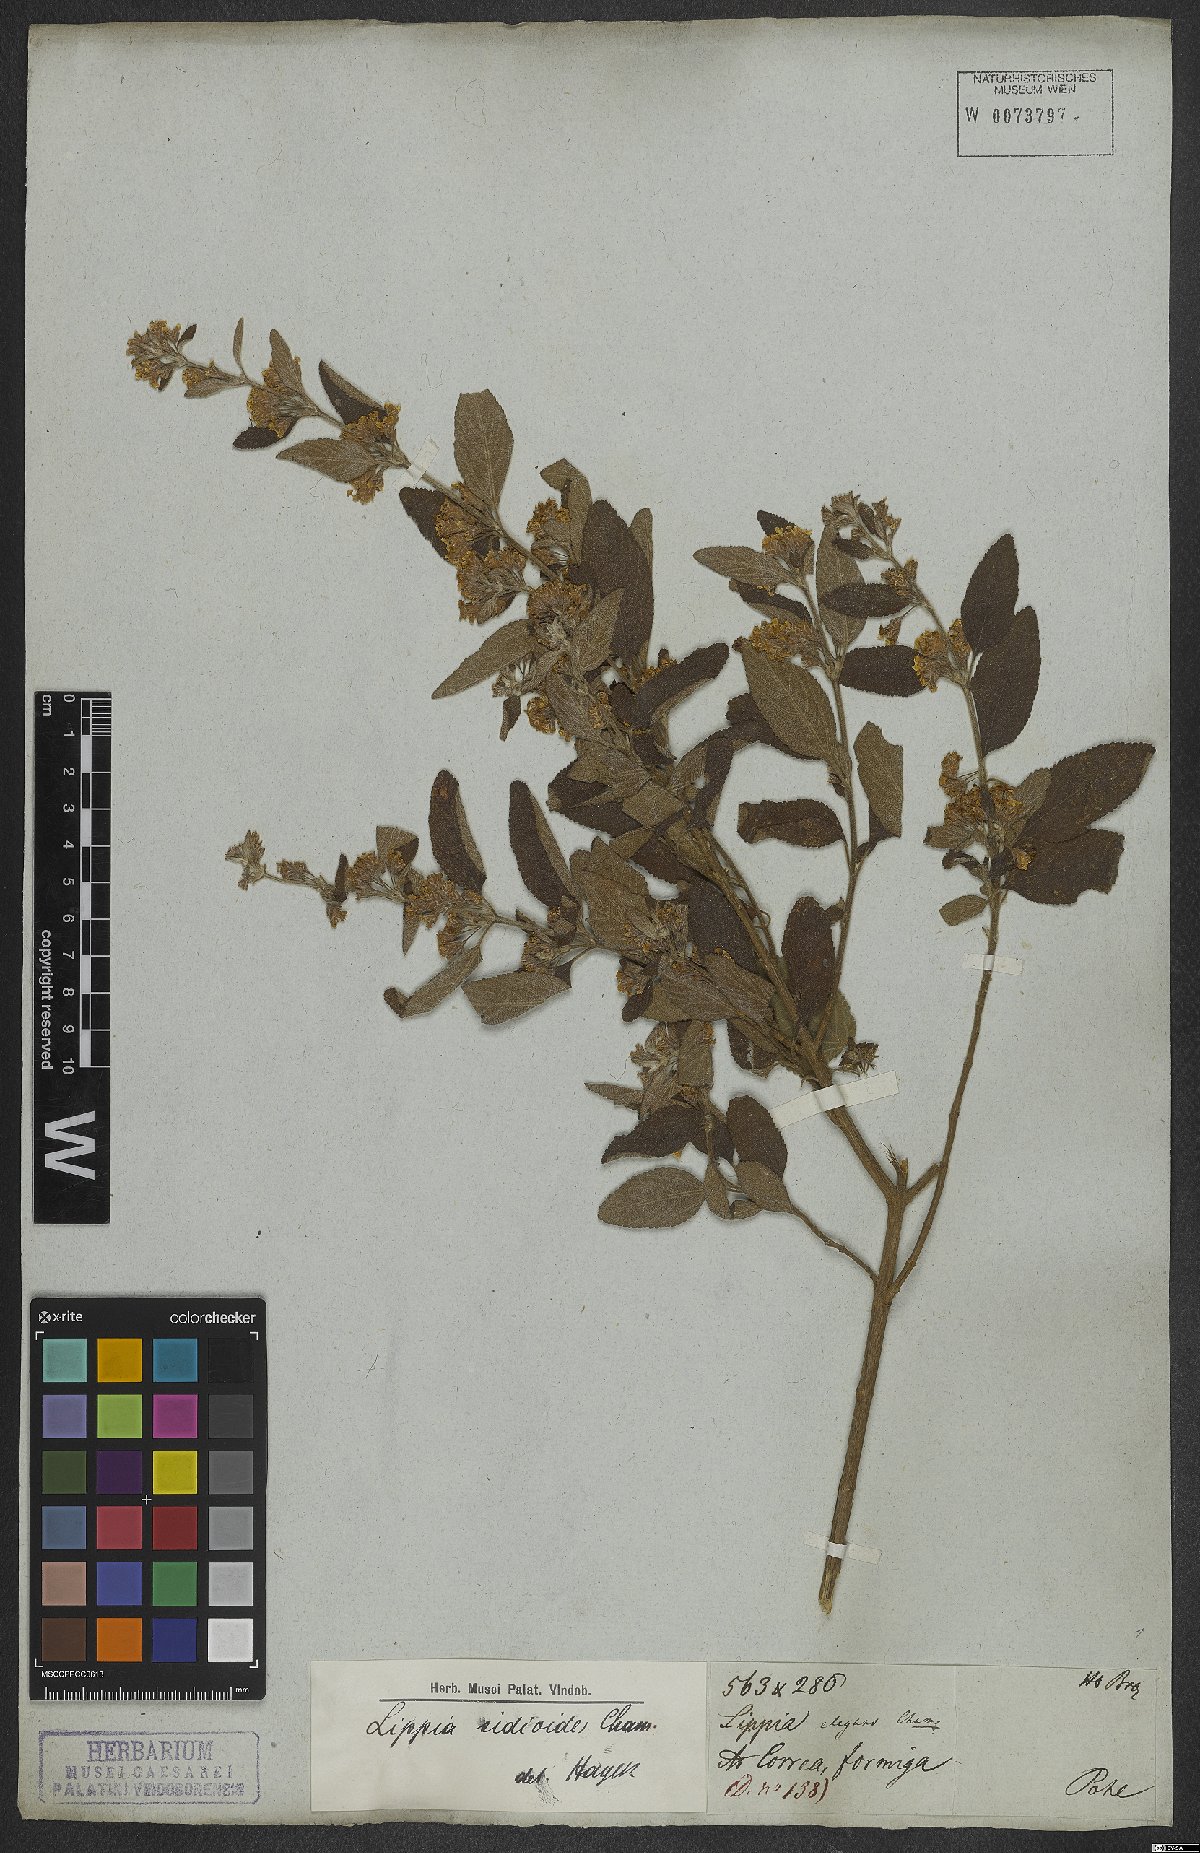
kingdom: Plantae
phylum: Tracheophyta
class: Magnoliopsida
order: Lamiales
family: Verbenaceae
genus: Lippia
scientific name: Lippia origanoides
